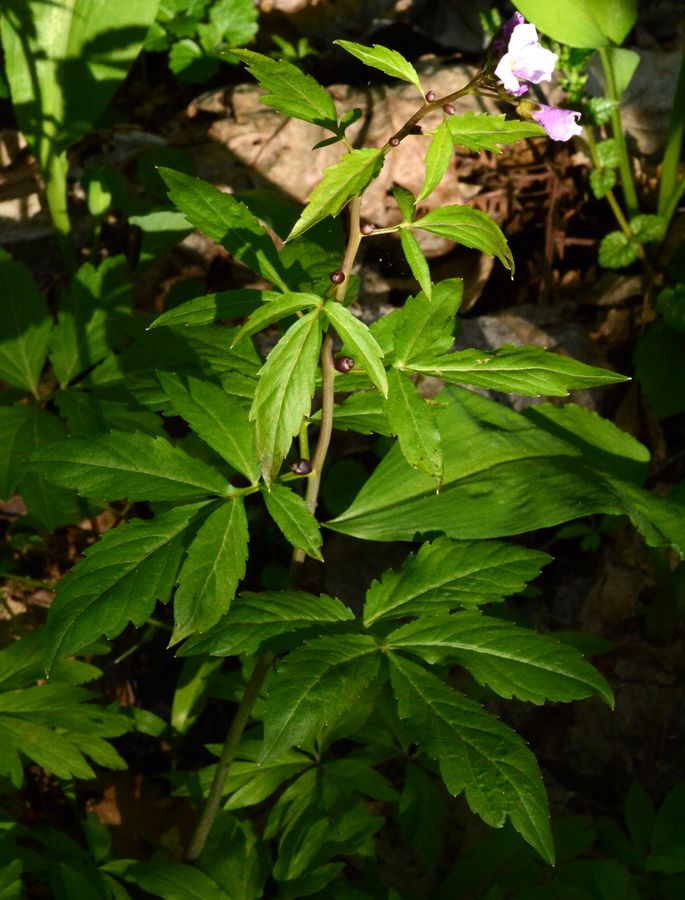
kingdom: Plantae
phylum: Tracheophyta
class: Magnoliopsida
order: Brassicales
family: Brassicaceae
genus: Cardamine
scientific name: Cardamine bulbifera
